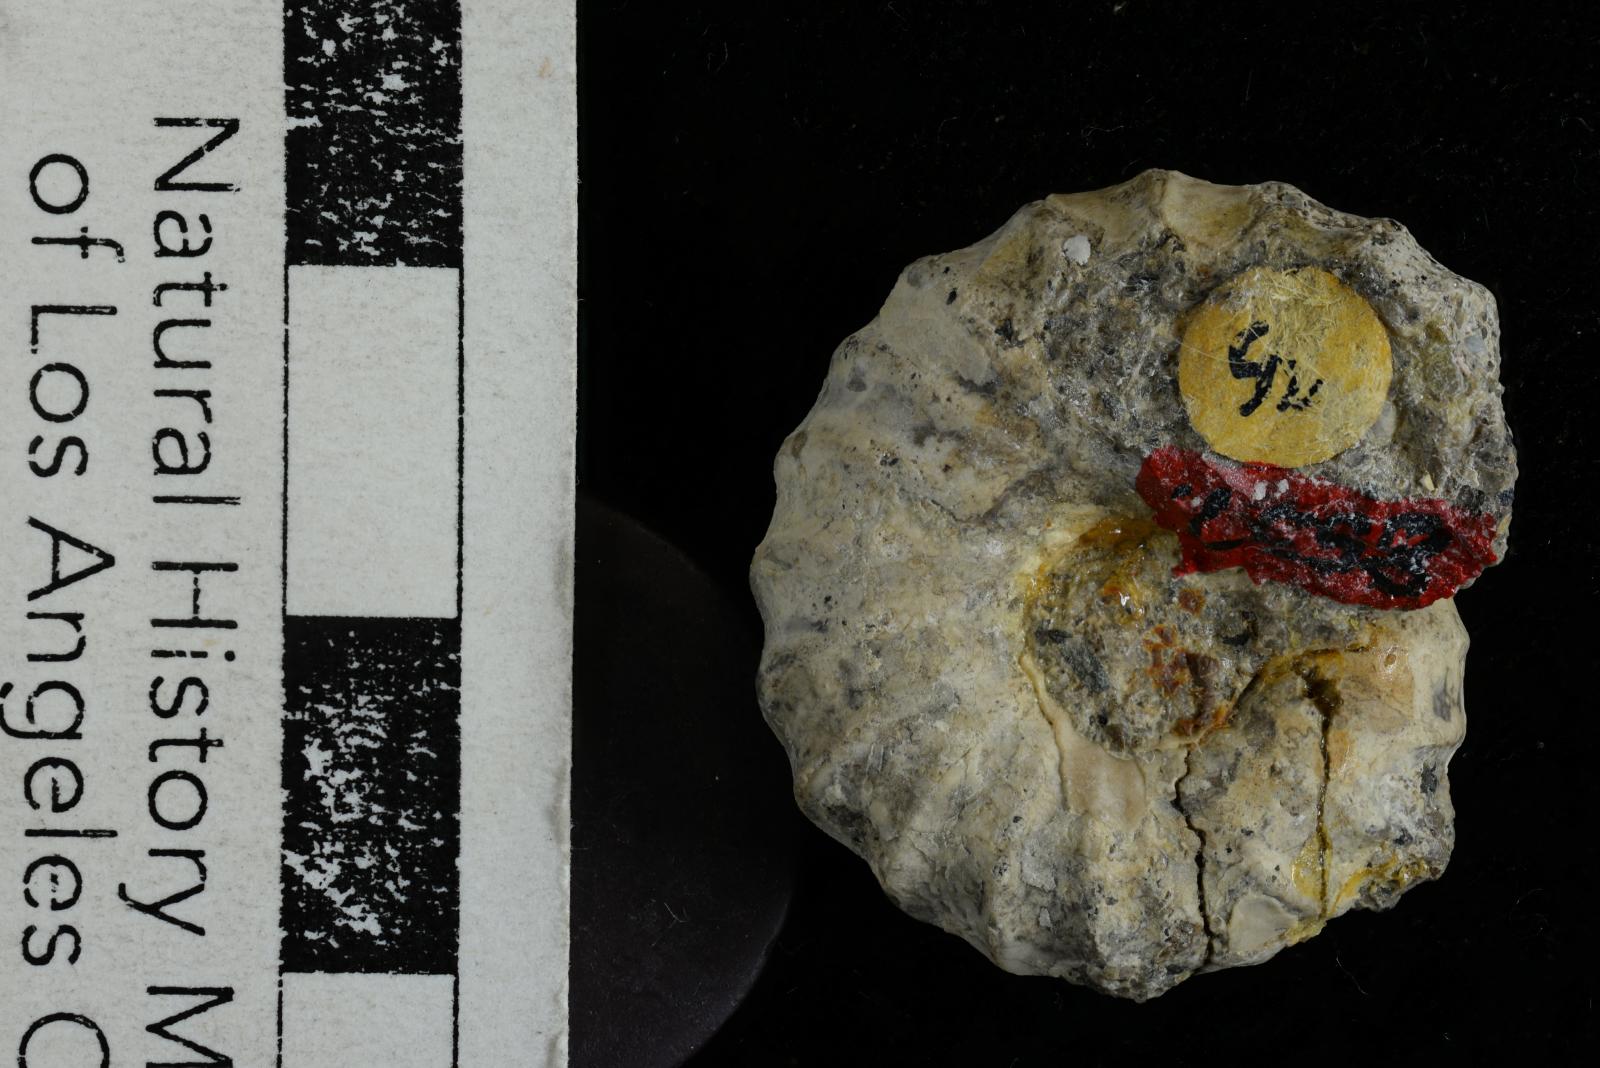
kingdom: Animalia
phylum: Mollusca
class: Cephalopoda
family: Nostoceratidae
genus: Nostoceras
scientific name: Nostoceras
